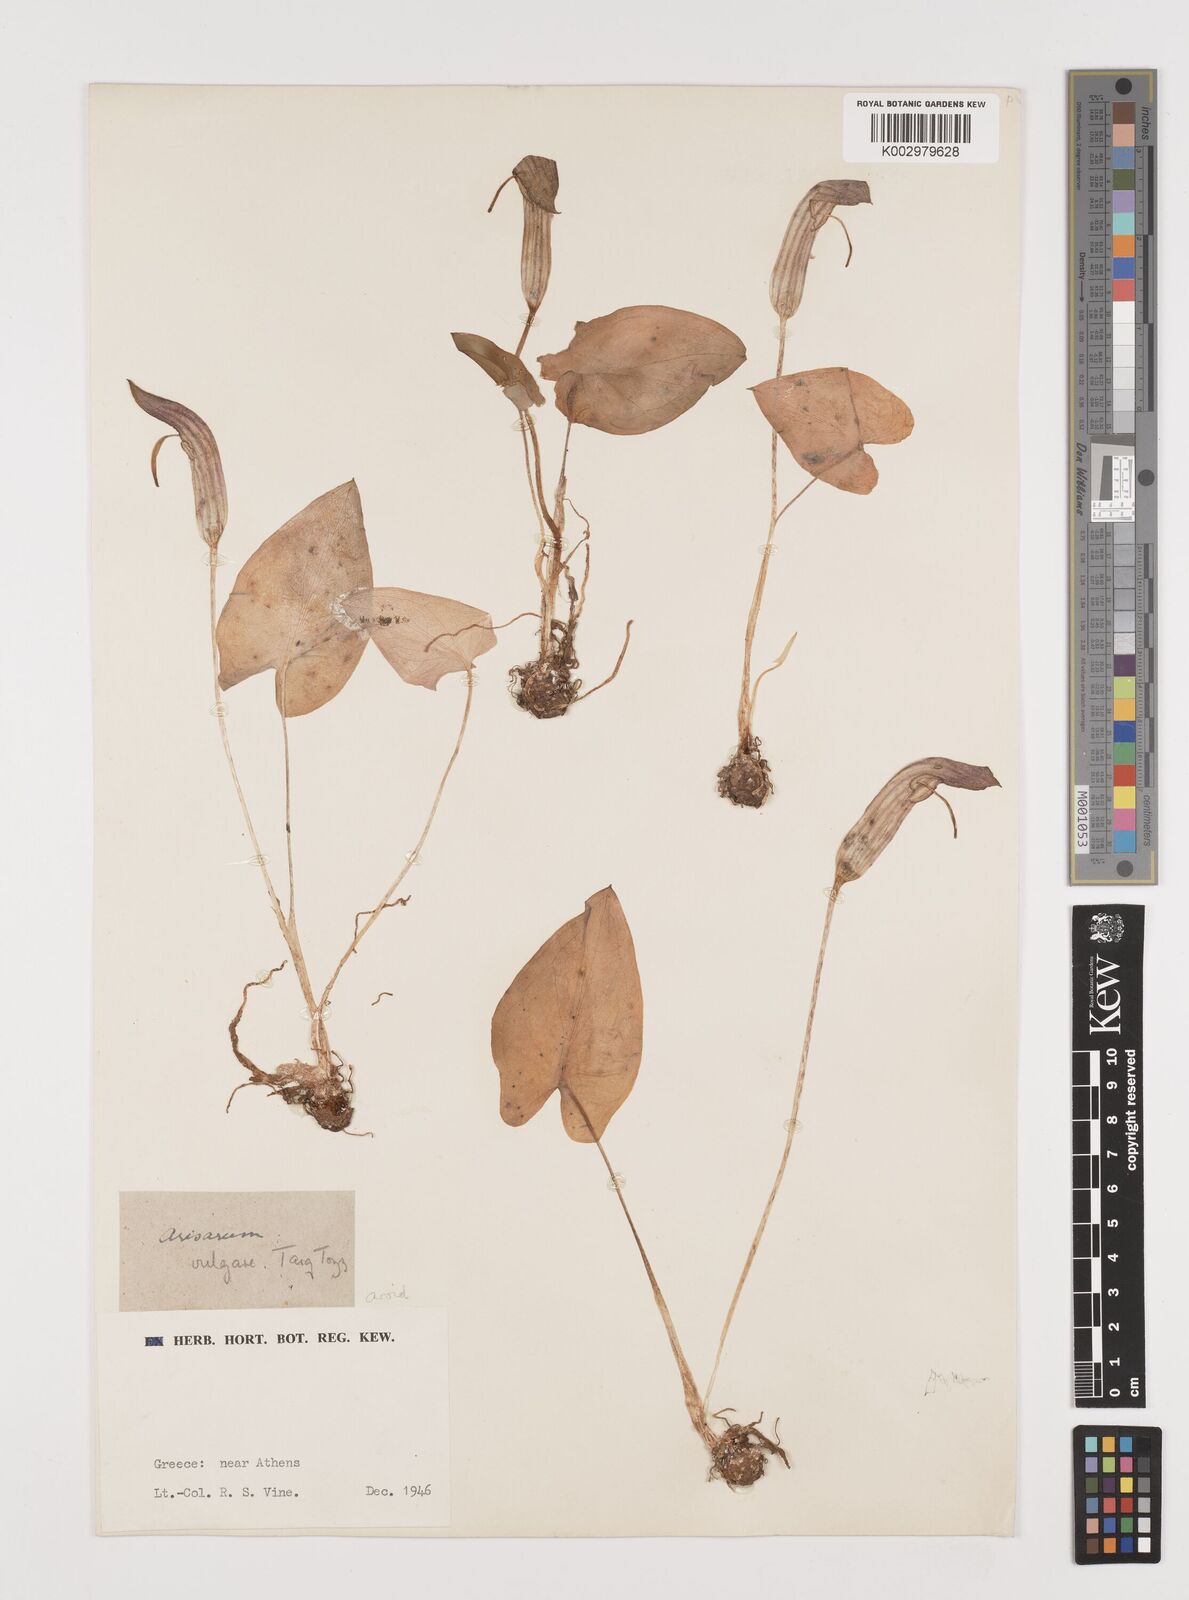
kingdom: Plantae
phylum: Tracheophyta
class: Liliopsida
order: Alismatales
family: Araceae
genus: Arisarum
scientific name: Arisarum vulgare
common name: Common arisarum
